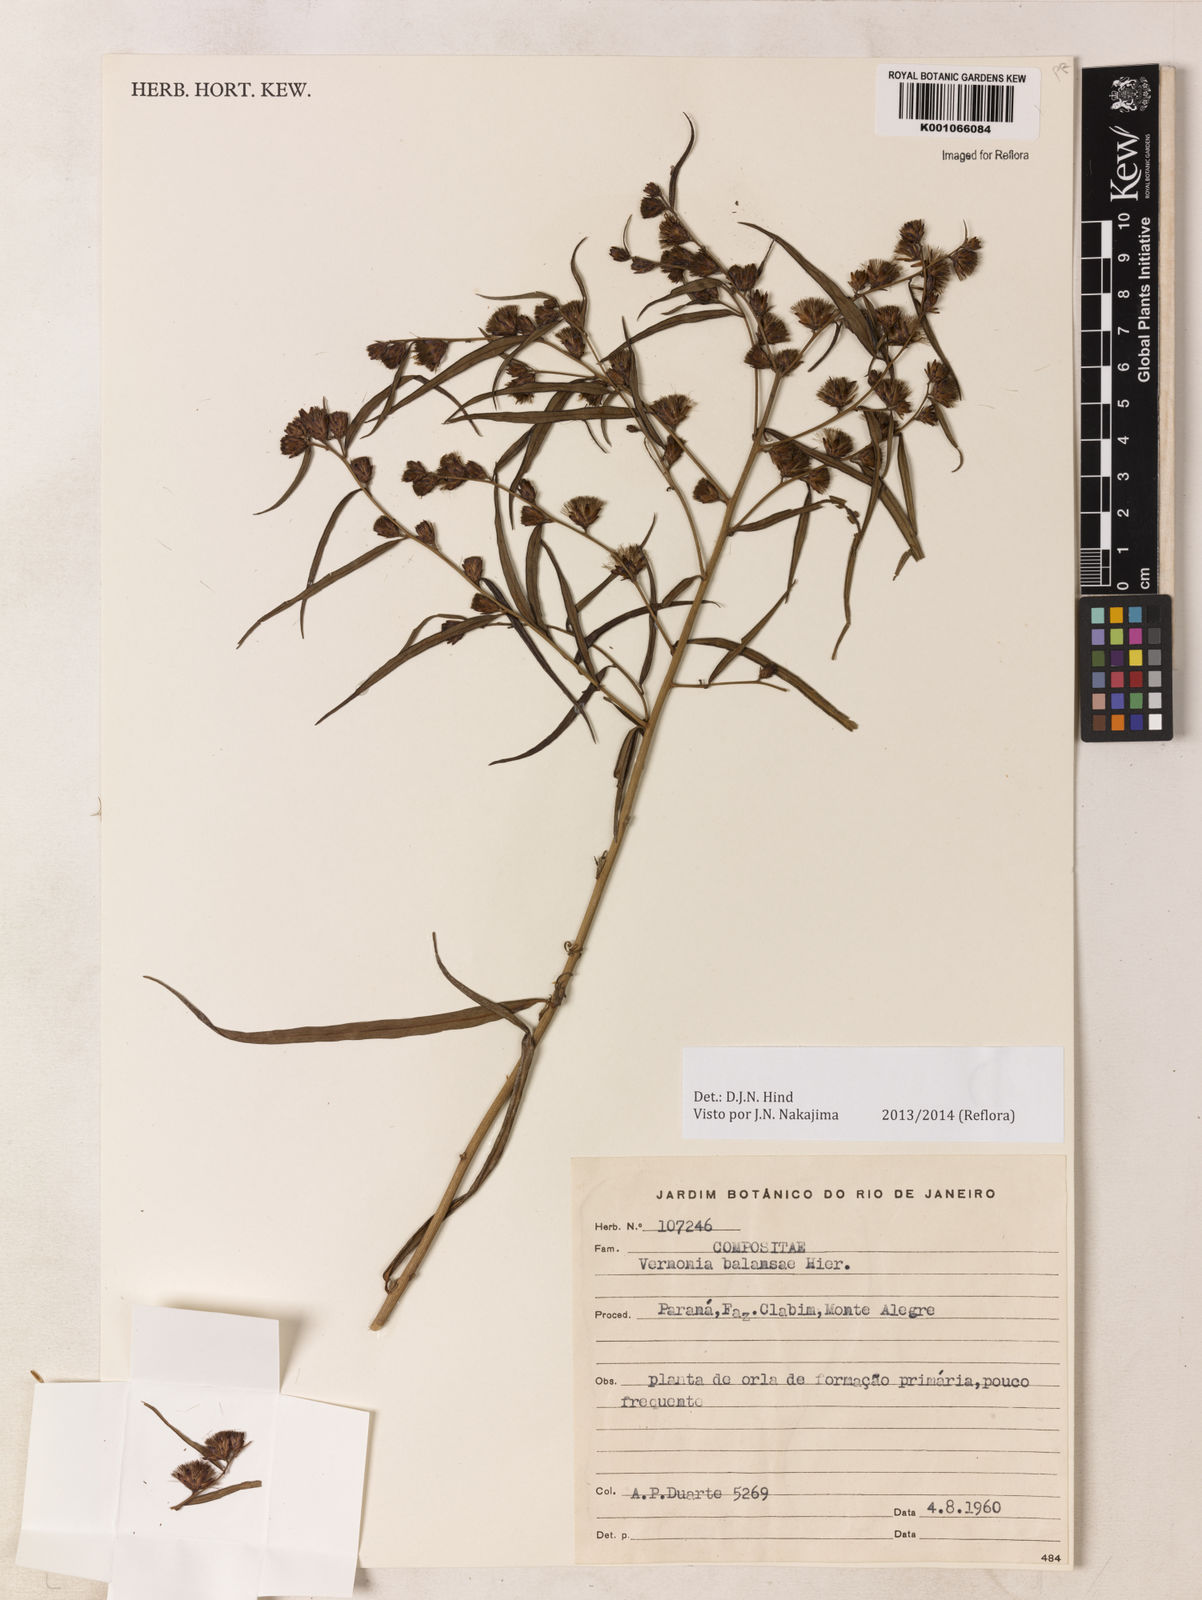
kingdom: Plantae
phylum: Tracheophyta
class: Magnoliopsida
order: Asterales
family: Asteraceae
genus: Vernonia
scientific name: Vernonia balansae
